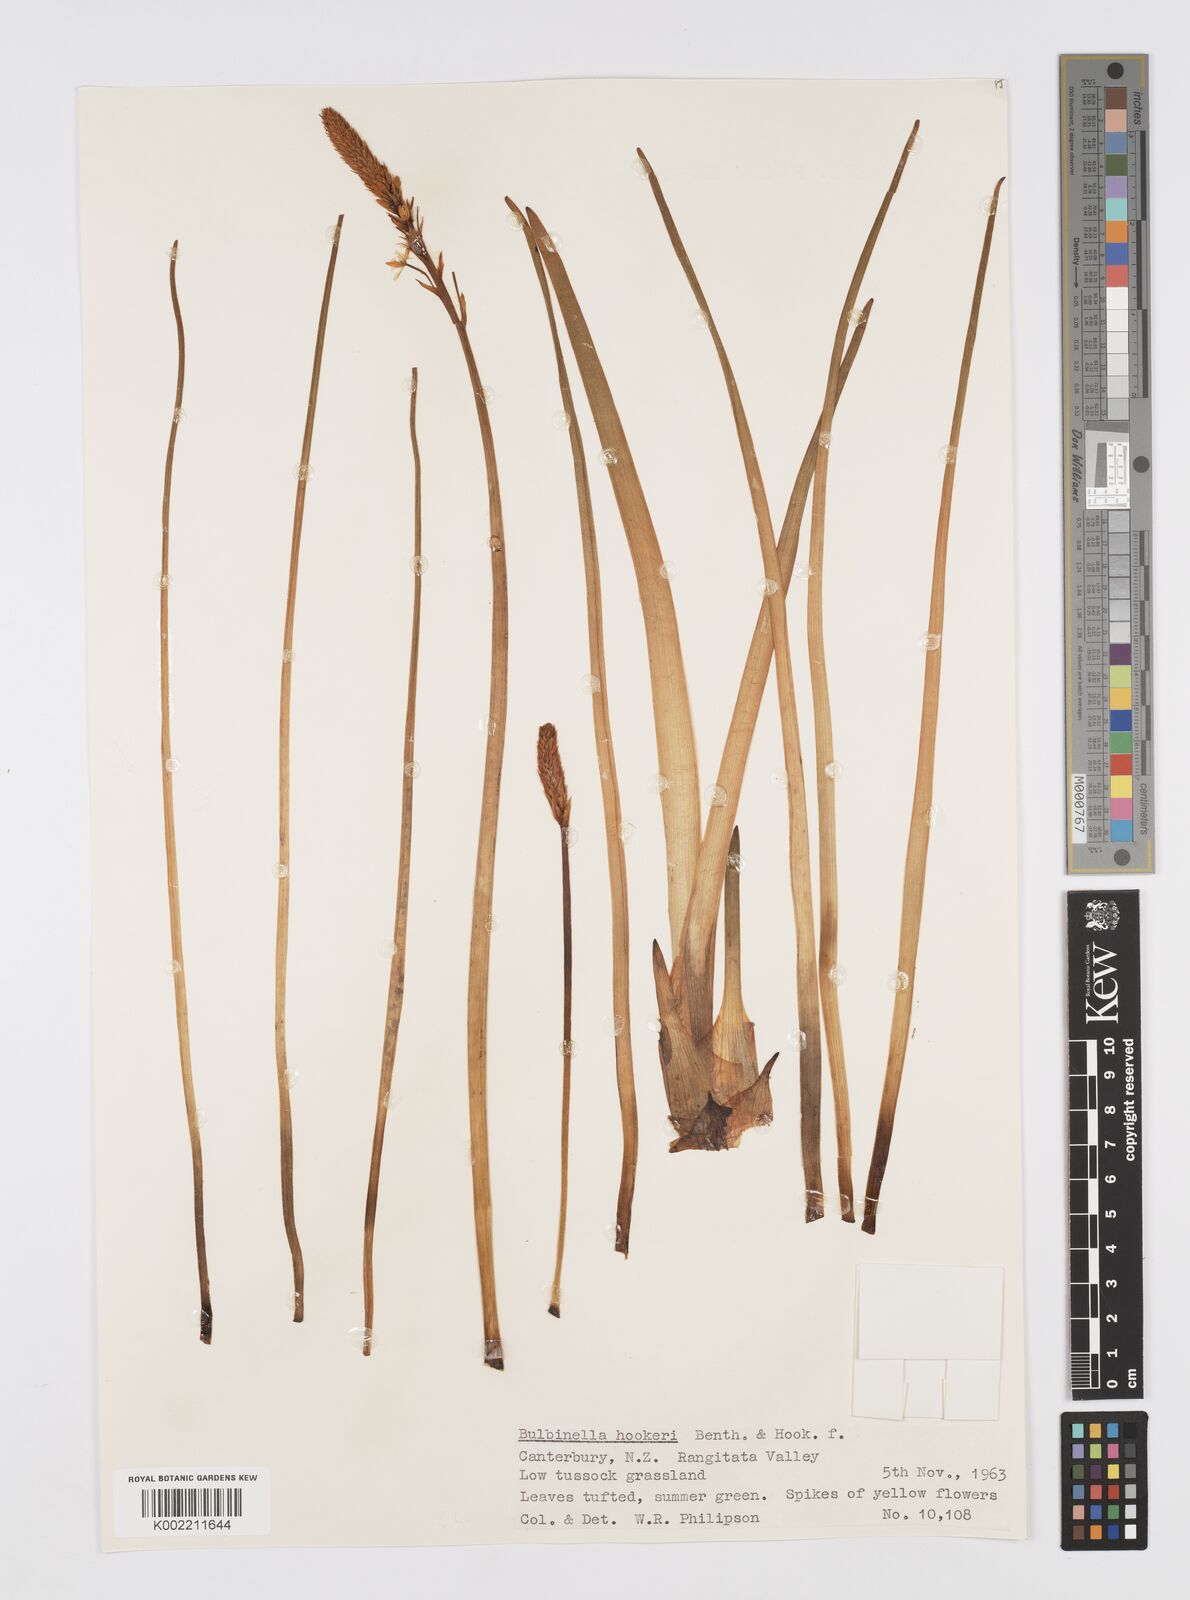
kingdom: Plantae
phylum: Tracheophyta
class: Liliopsida
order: Asparagales
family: Asphodelaceae
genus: Bulbinella
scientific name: Bulbinella hookeri
